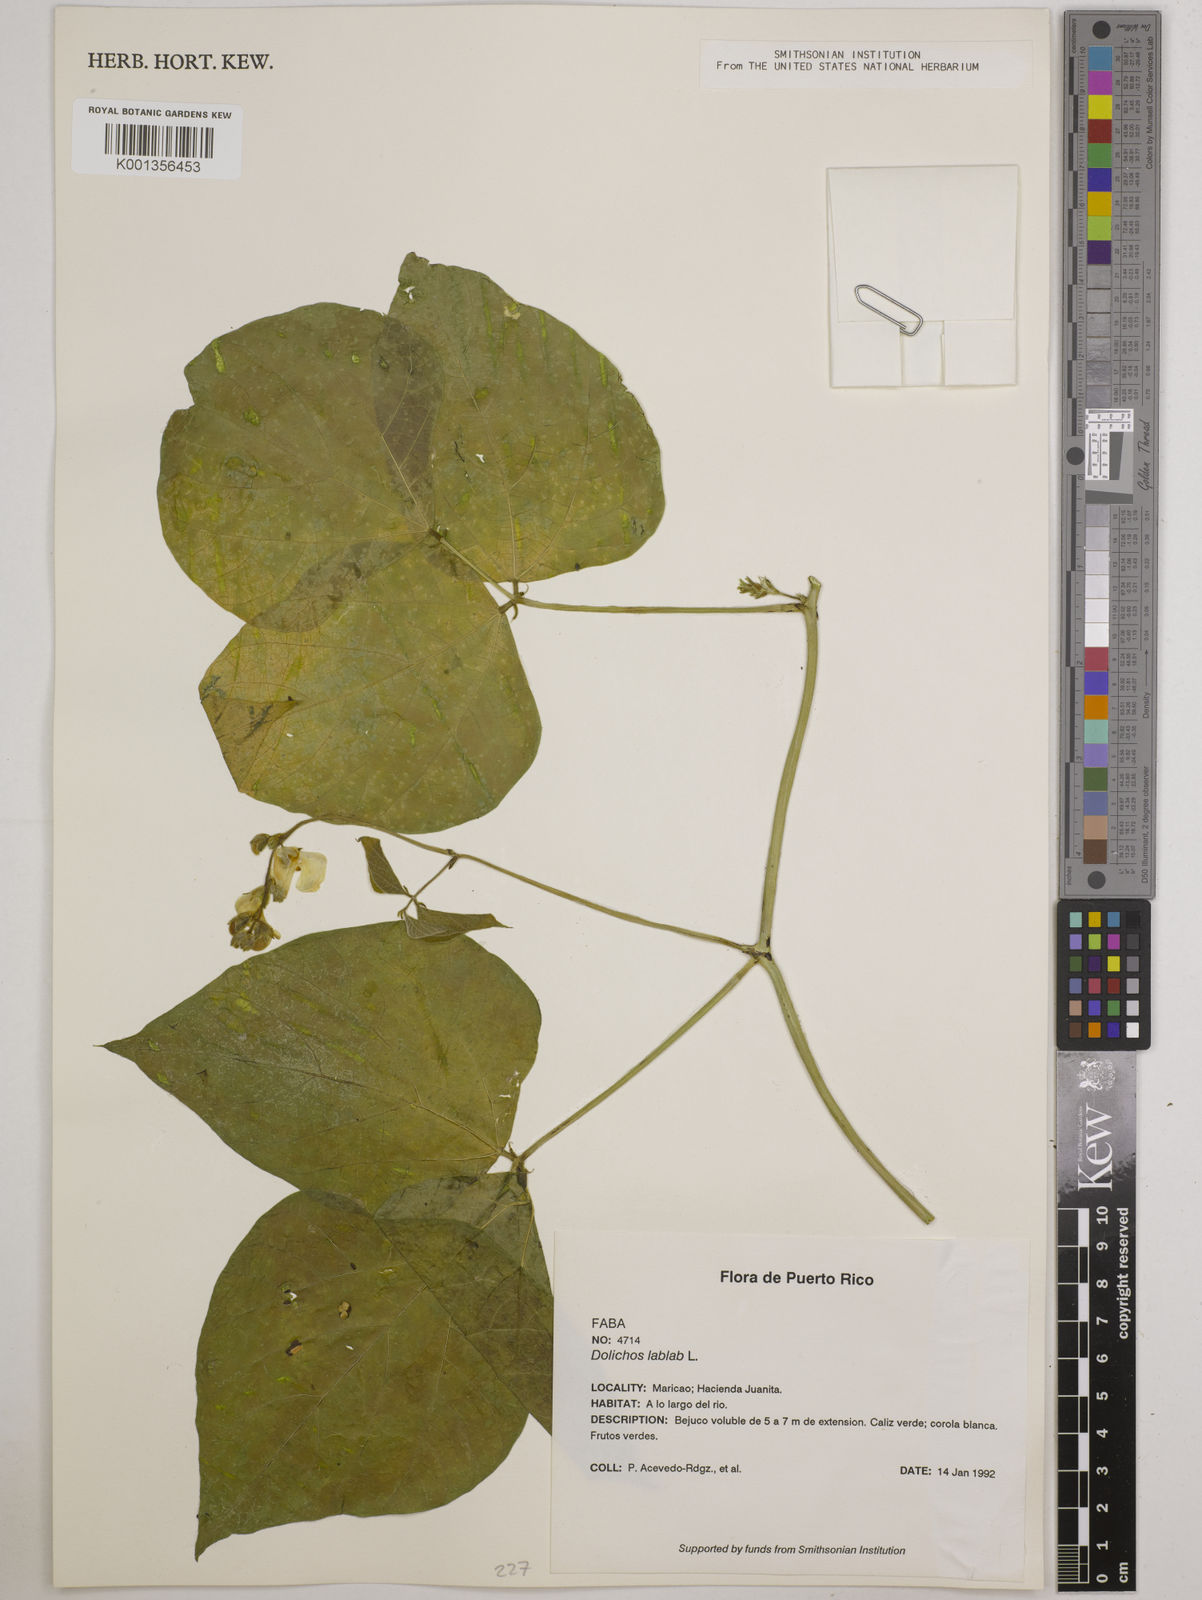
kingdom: Plantae
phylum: Tracheophyta
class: Magnoliopsida
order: Fabales
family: Fabaceae
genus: Lablab
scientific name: Lablab purpureus
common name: Lablab-bean
